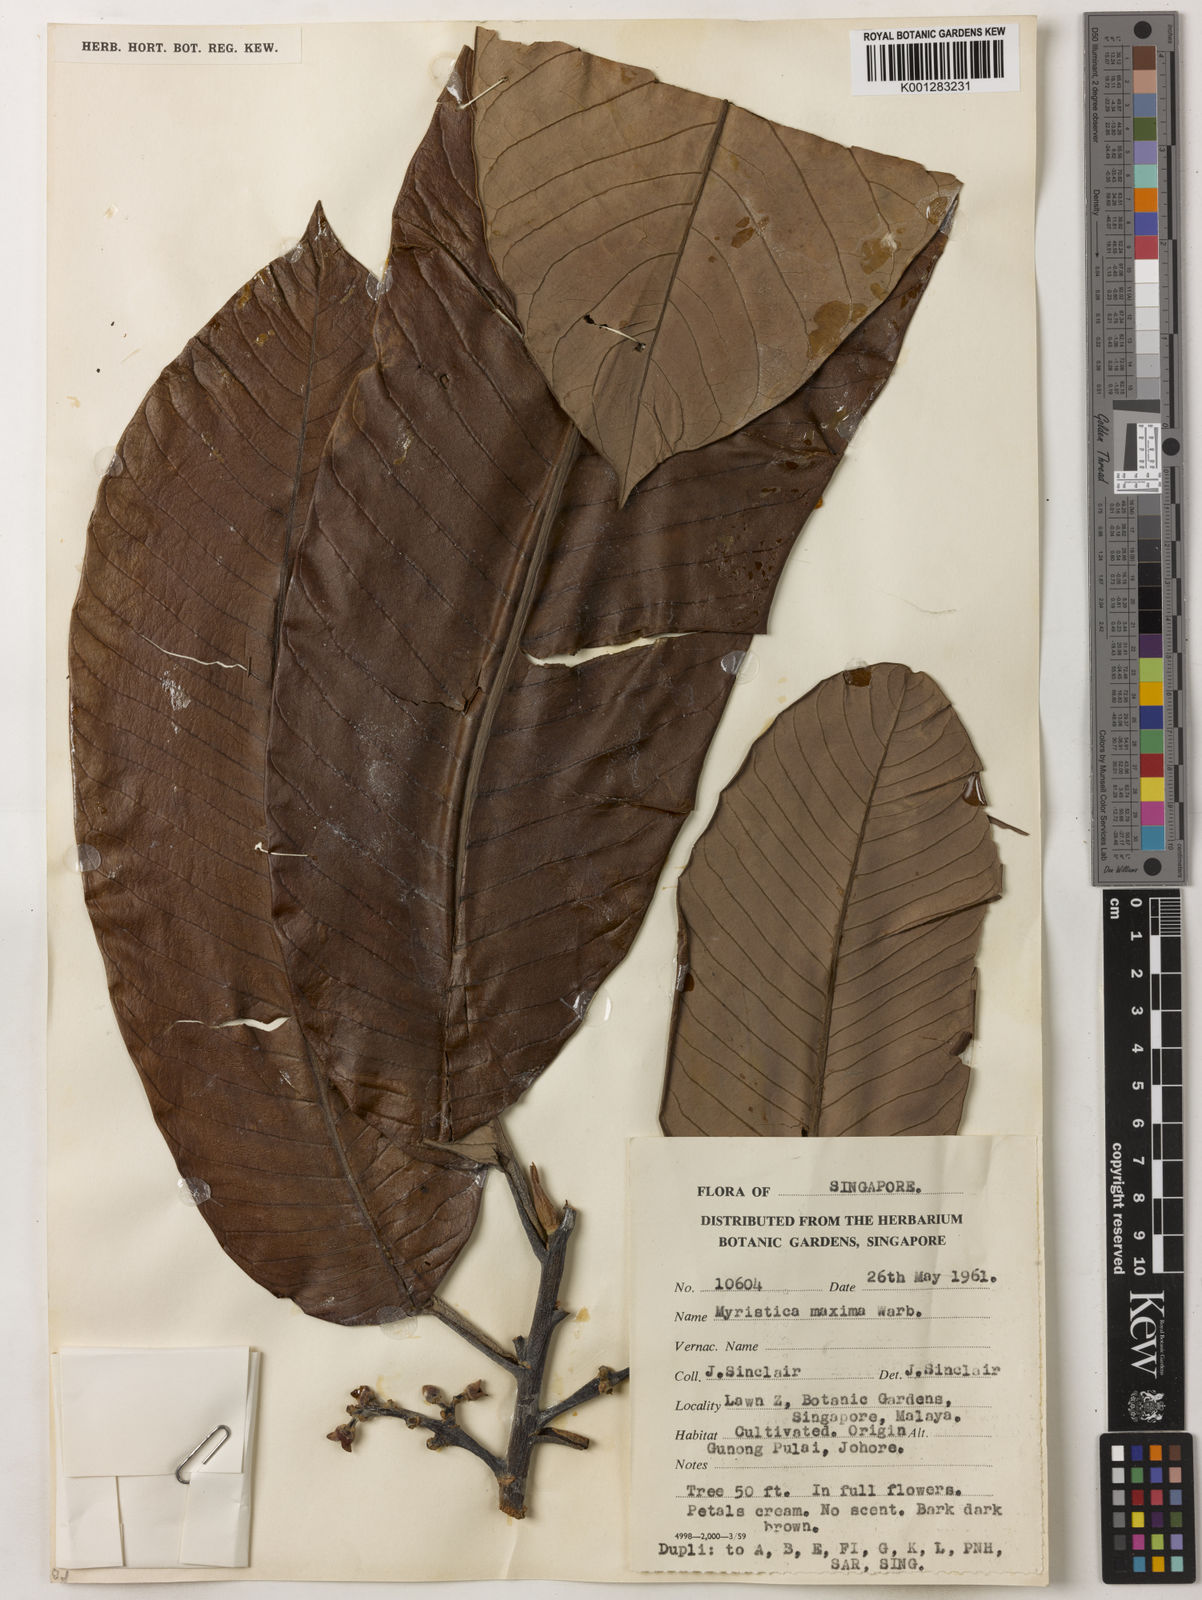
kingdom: Plantae
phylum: Tracheophyta
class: Magnoliopsida
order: Magnoliales
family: Myristicaceae
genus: Myristica
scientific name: Myristica maxima
